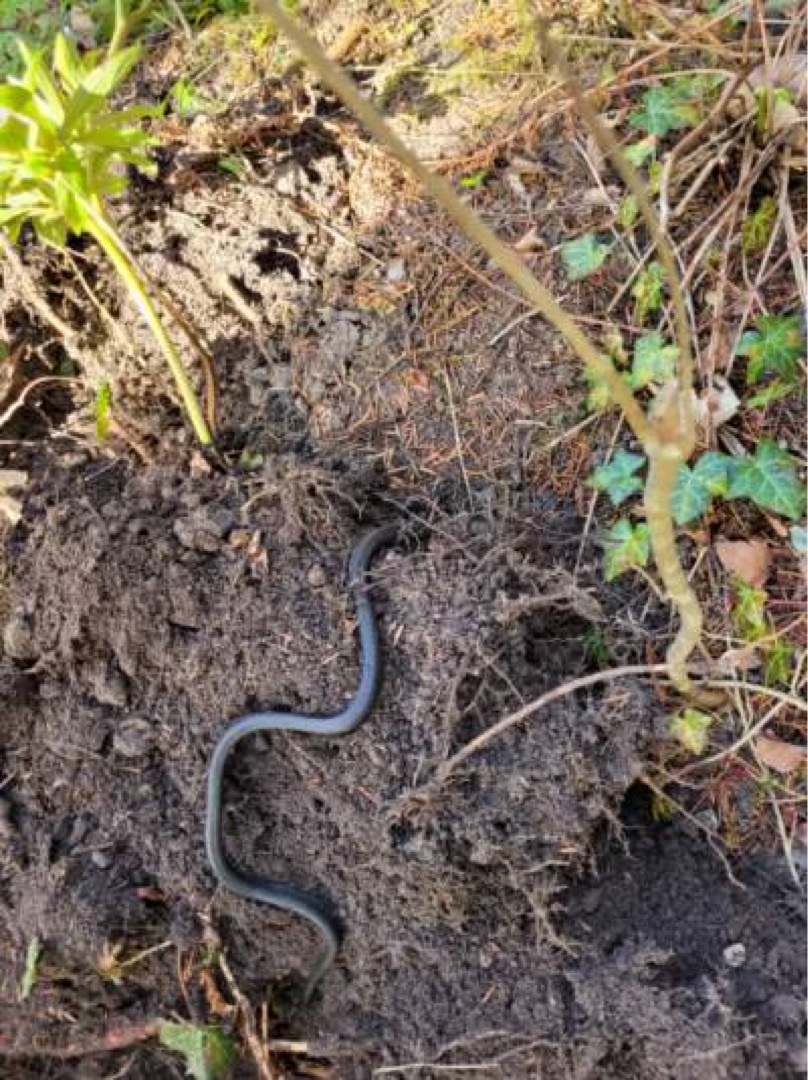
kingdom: Animalia
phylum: Chordata
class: Squamata
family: Colubridae
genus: Natrix
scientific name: Natrix natrix
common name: Snog
